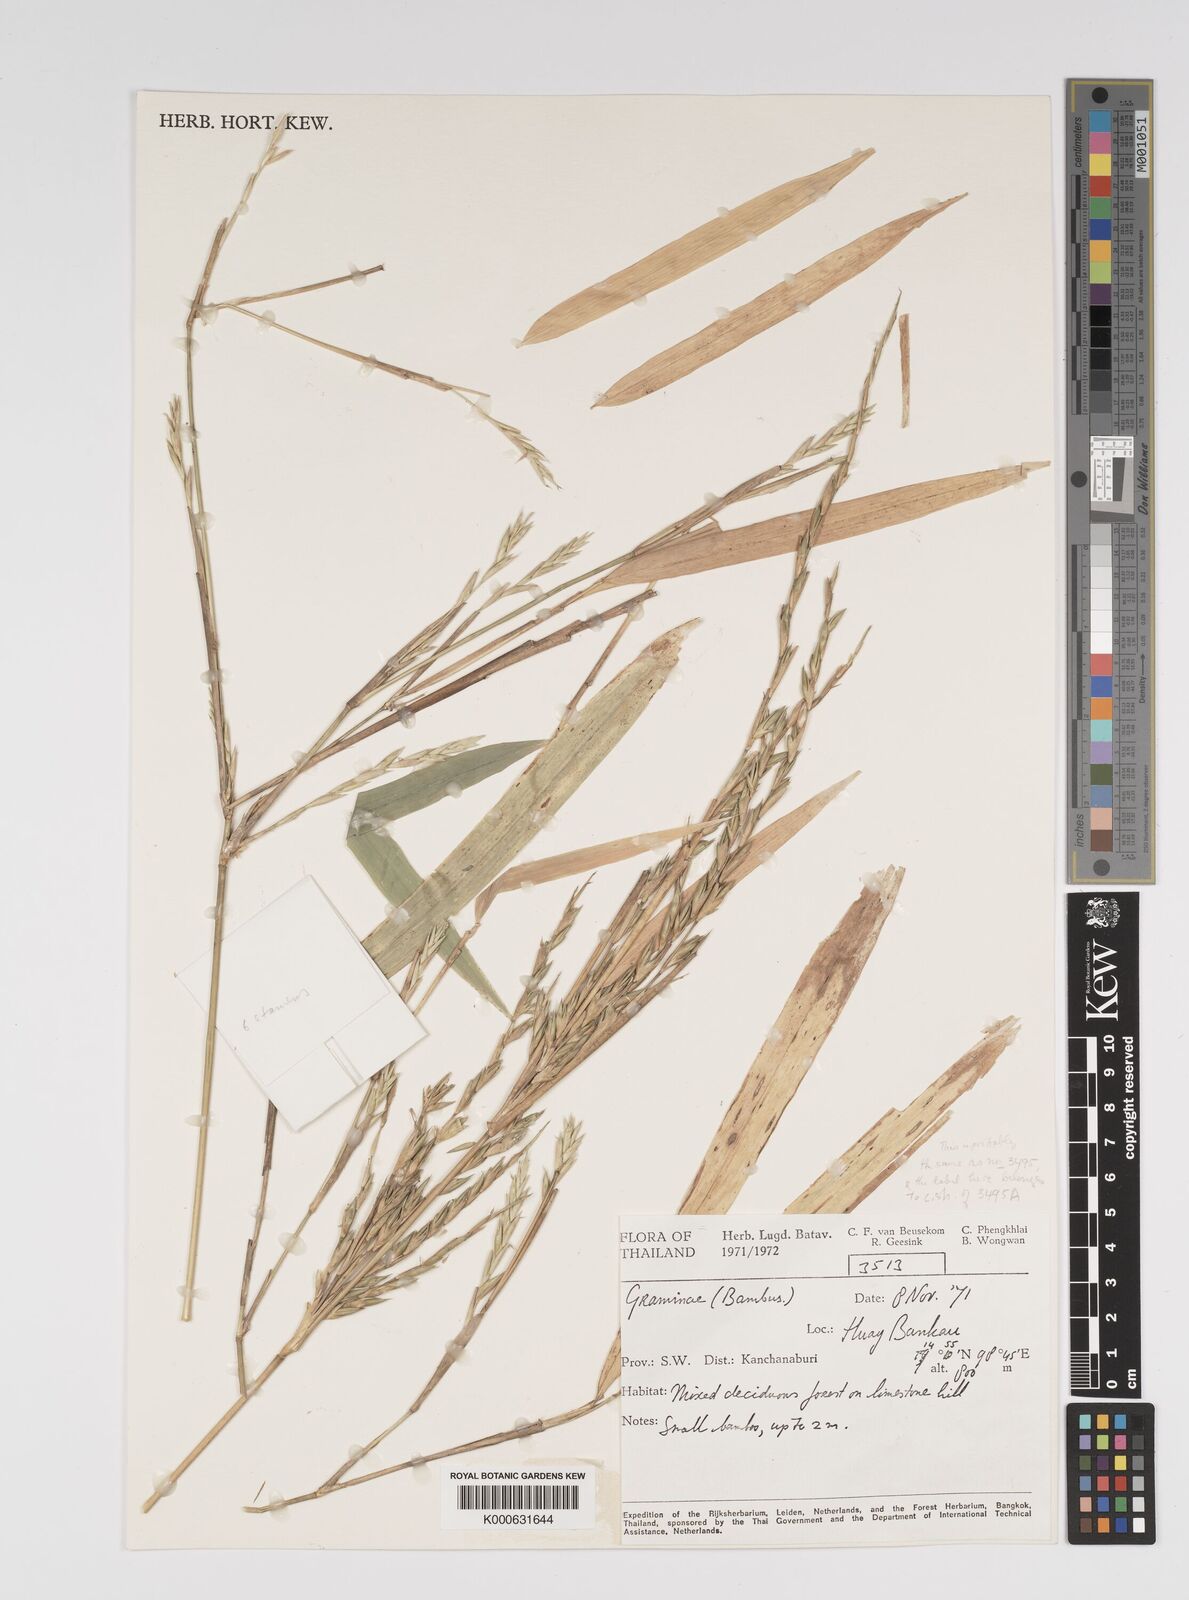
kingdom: Plantae
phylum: Tracheophyta
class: Liliopsida
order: Poales
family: Poaceae
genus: Bambusa
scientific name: Bambusa
